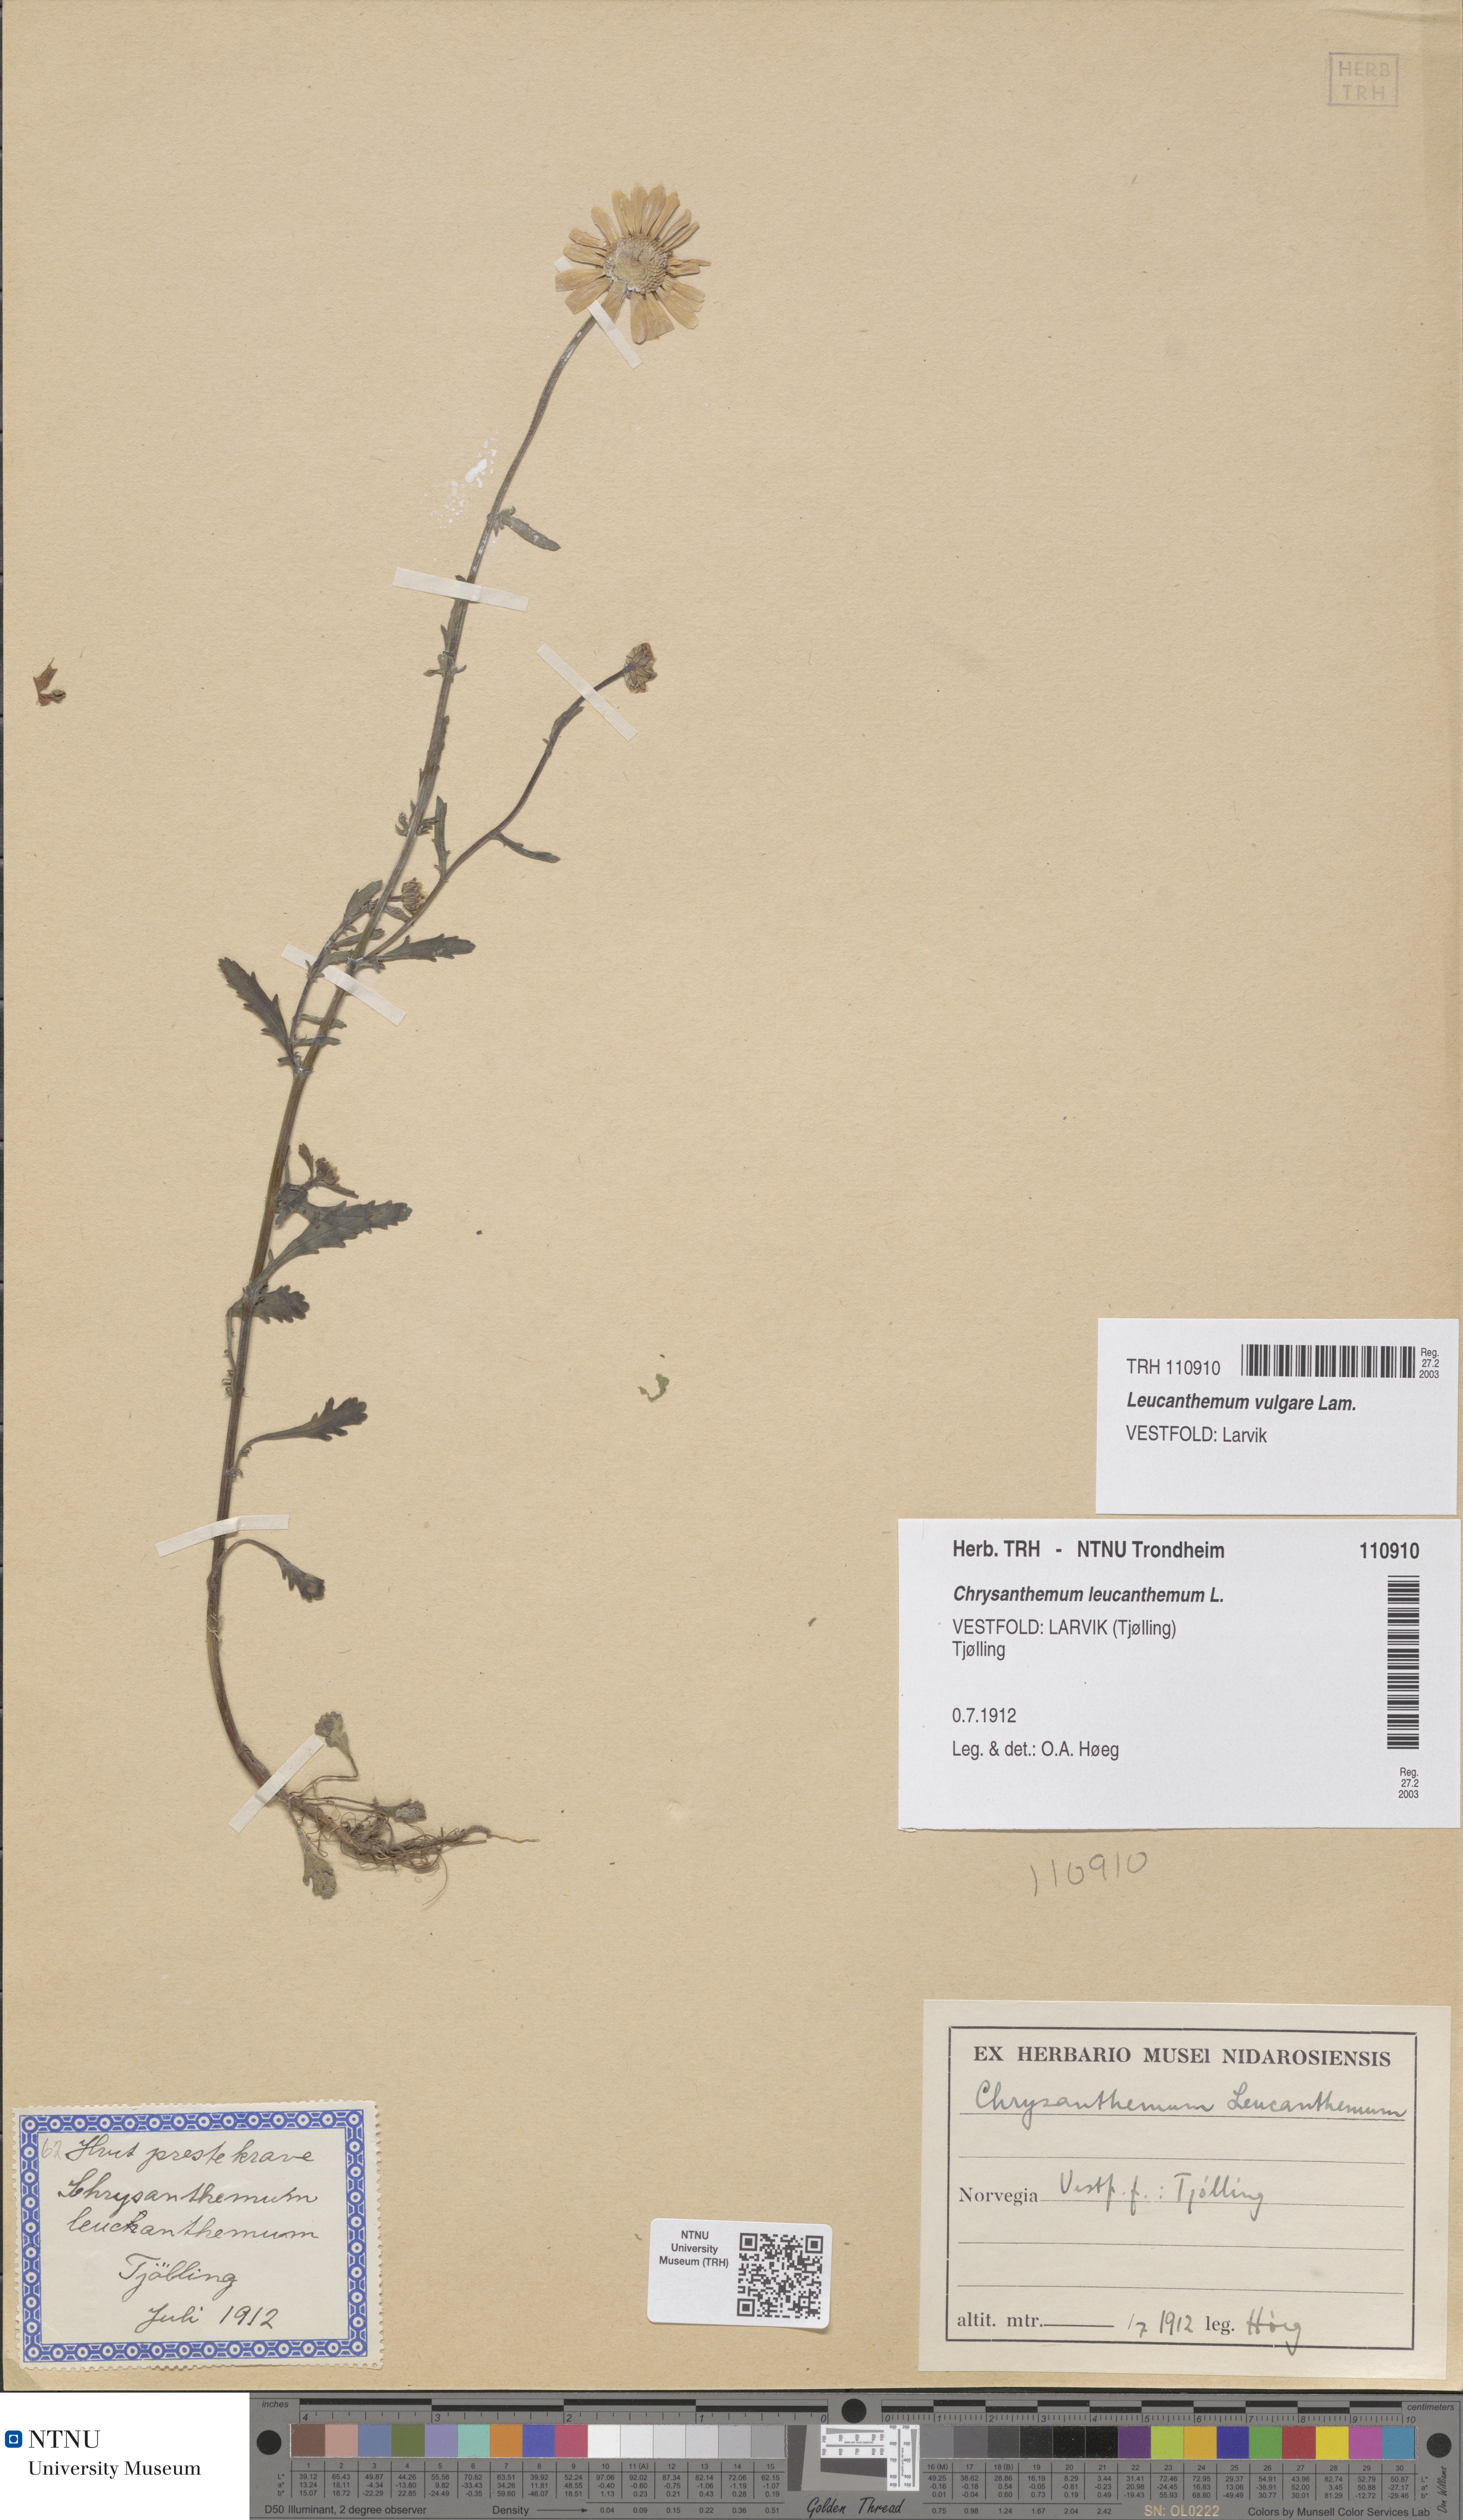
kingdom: Plantae
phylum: Tracheophyta
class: Magnoliopsida
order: Asterales
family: Asteraceae
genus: Leucanthemum
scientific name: Leucanthemum vulgare
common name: Oxeye daisy
